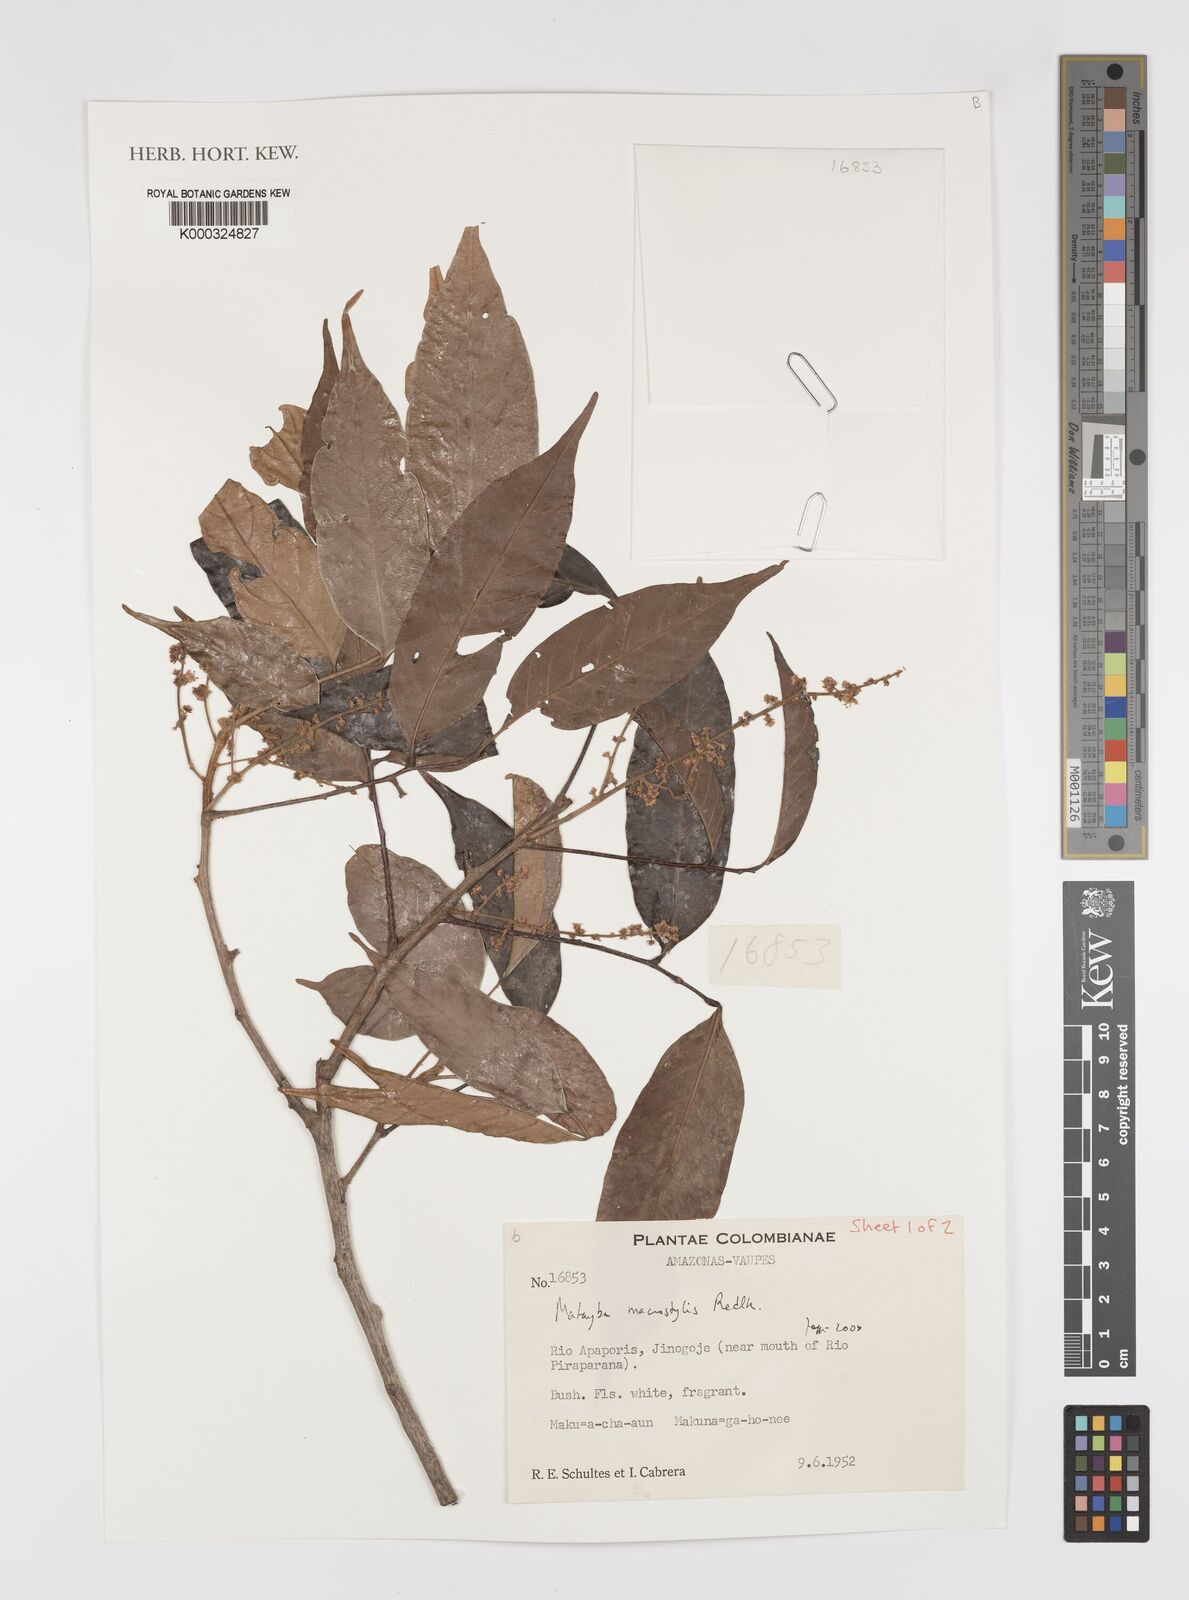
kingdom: Plantae
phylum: Tracheophyta
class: Magnoliopsida
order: Sapindales
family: Sapindaceae
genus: Cupania
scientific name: Cupania macrostylis
